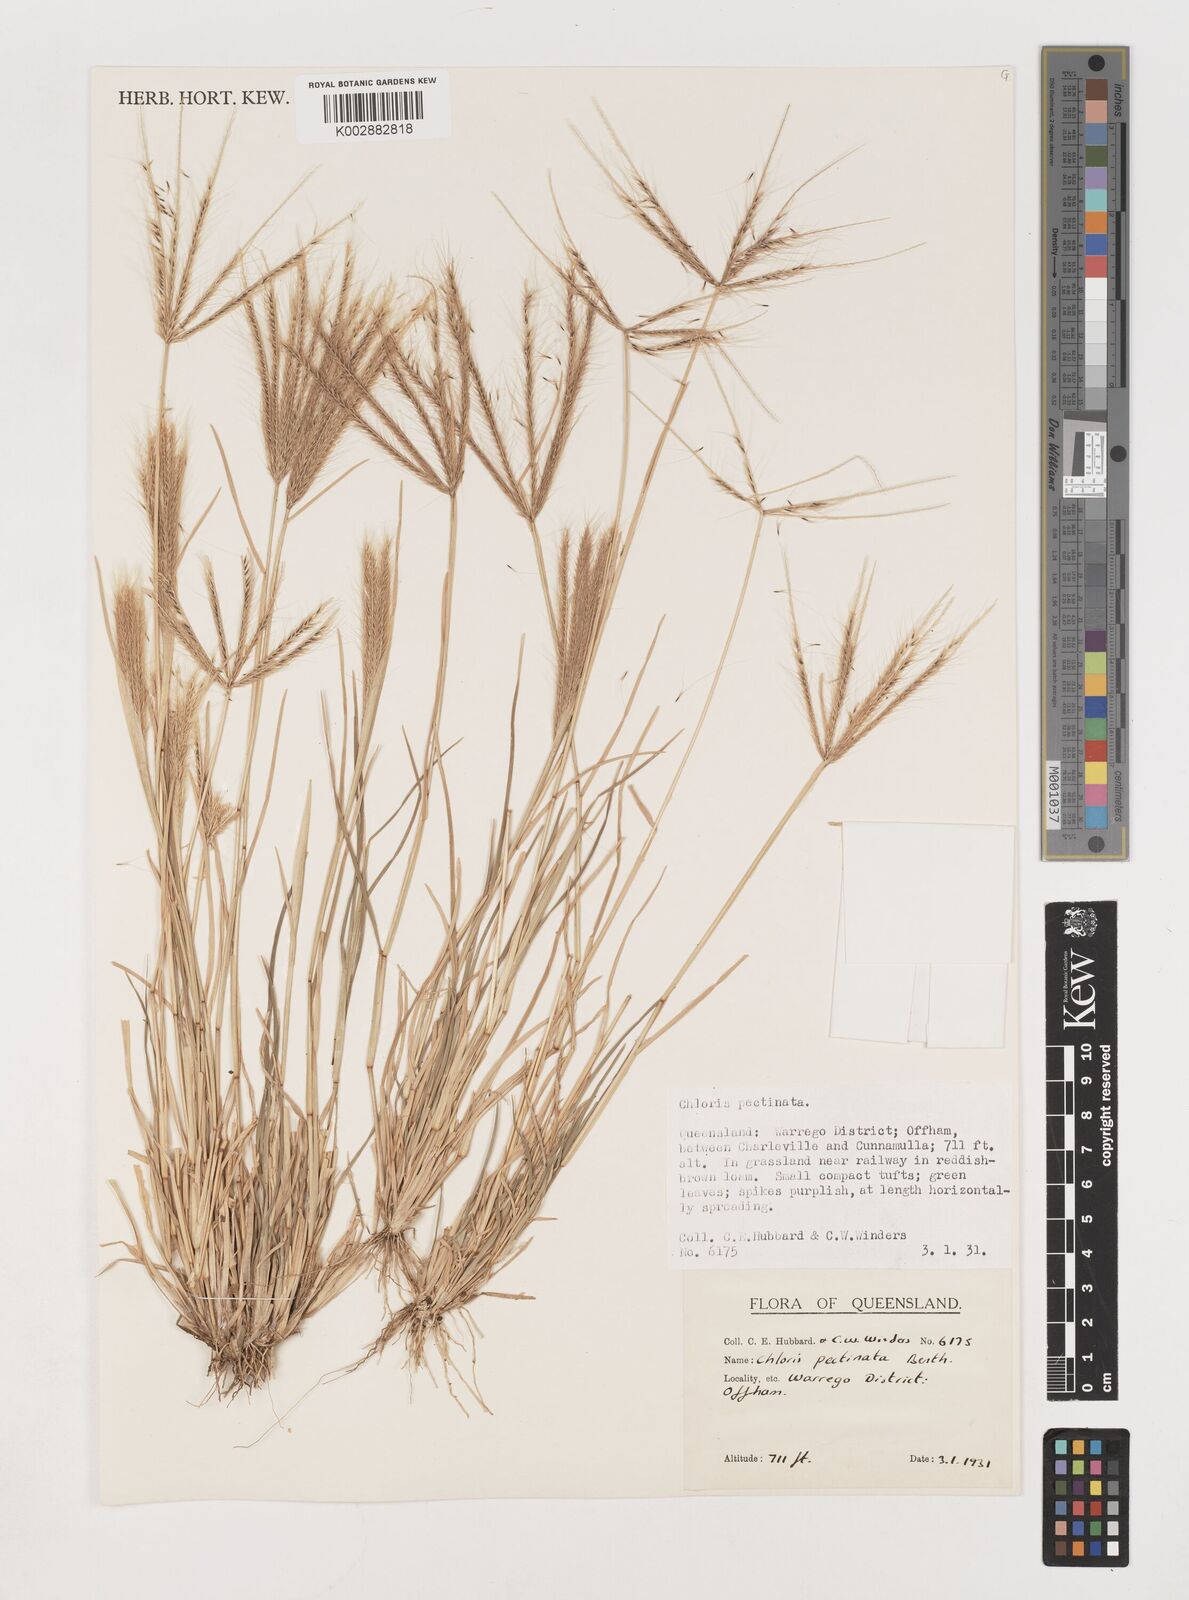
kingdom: Plantae
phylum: Tracheophyta
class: Liliopsida
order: Poales
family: Poaceae
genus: Chloris
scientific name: Chloris pectinata
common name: Comb windmill grass
